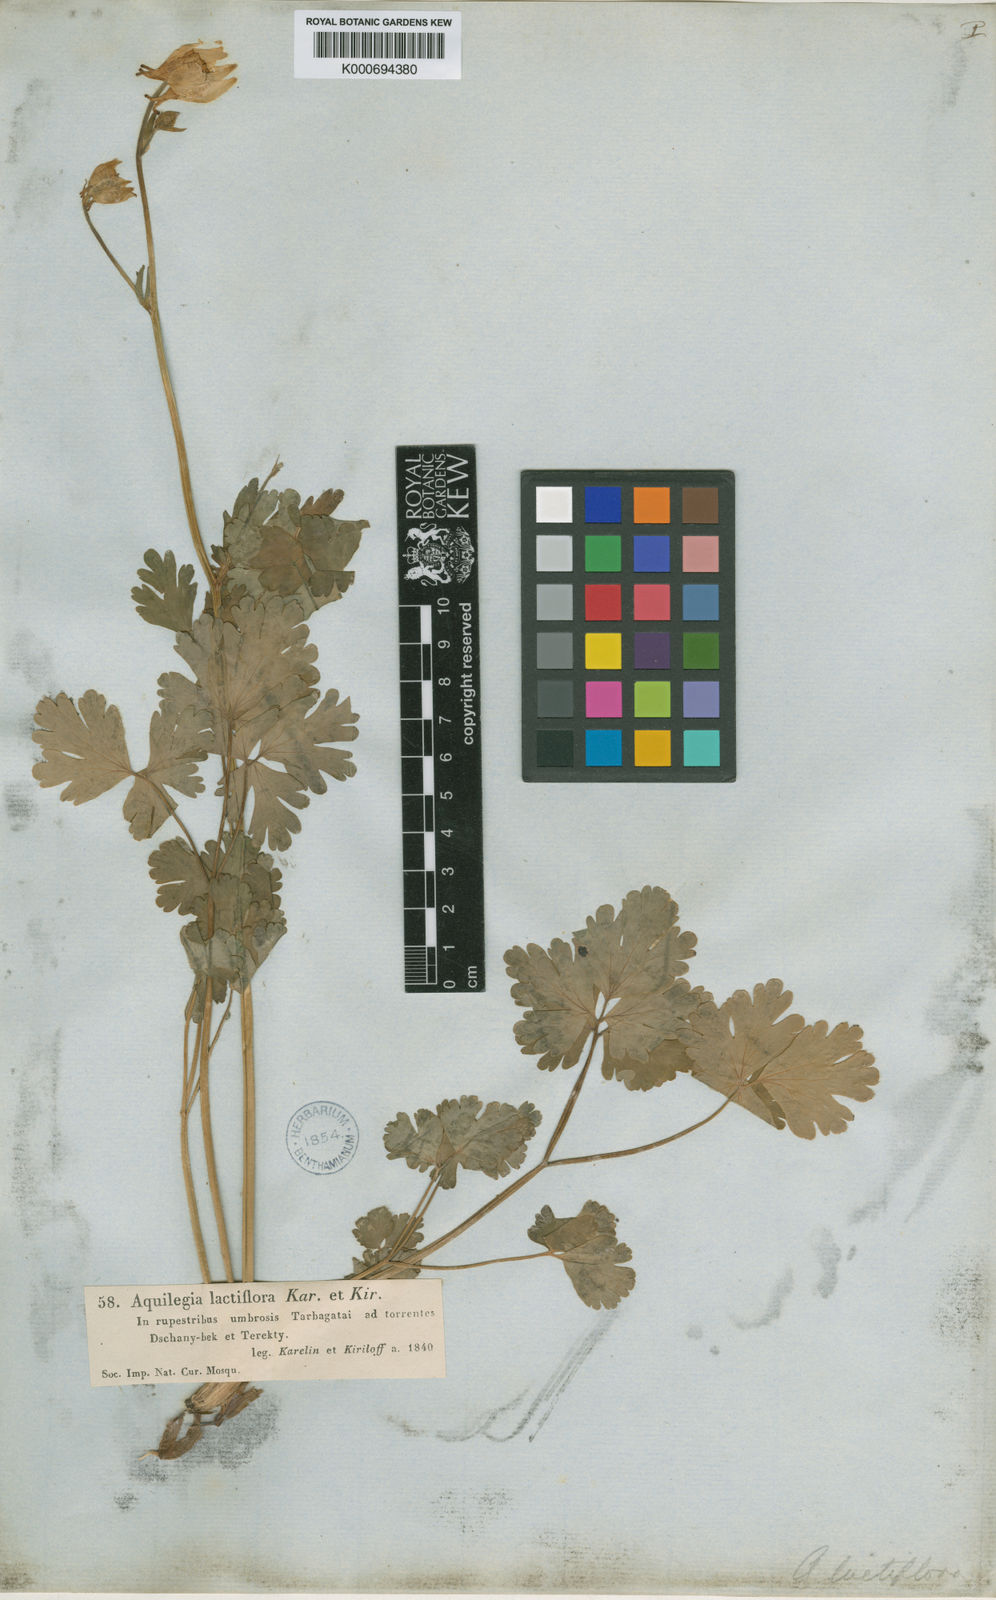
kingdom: Plantae
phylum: Tracheophyta
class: Magnoliopsida
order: Ranunculales
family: Ranunculaceae
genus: Aquilegia
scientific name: Aquilegia lactiflora
